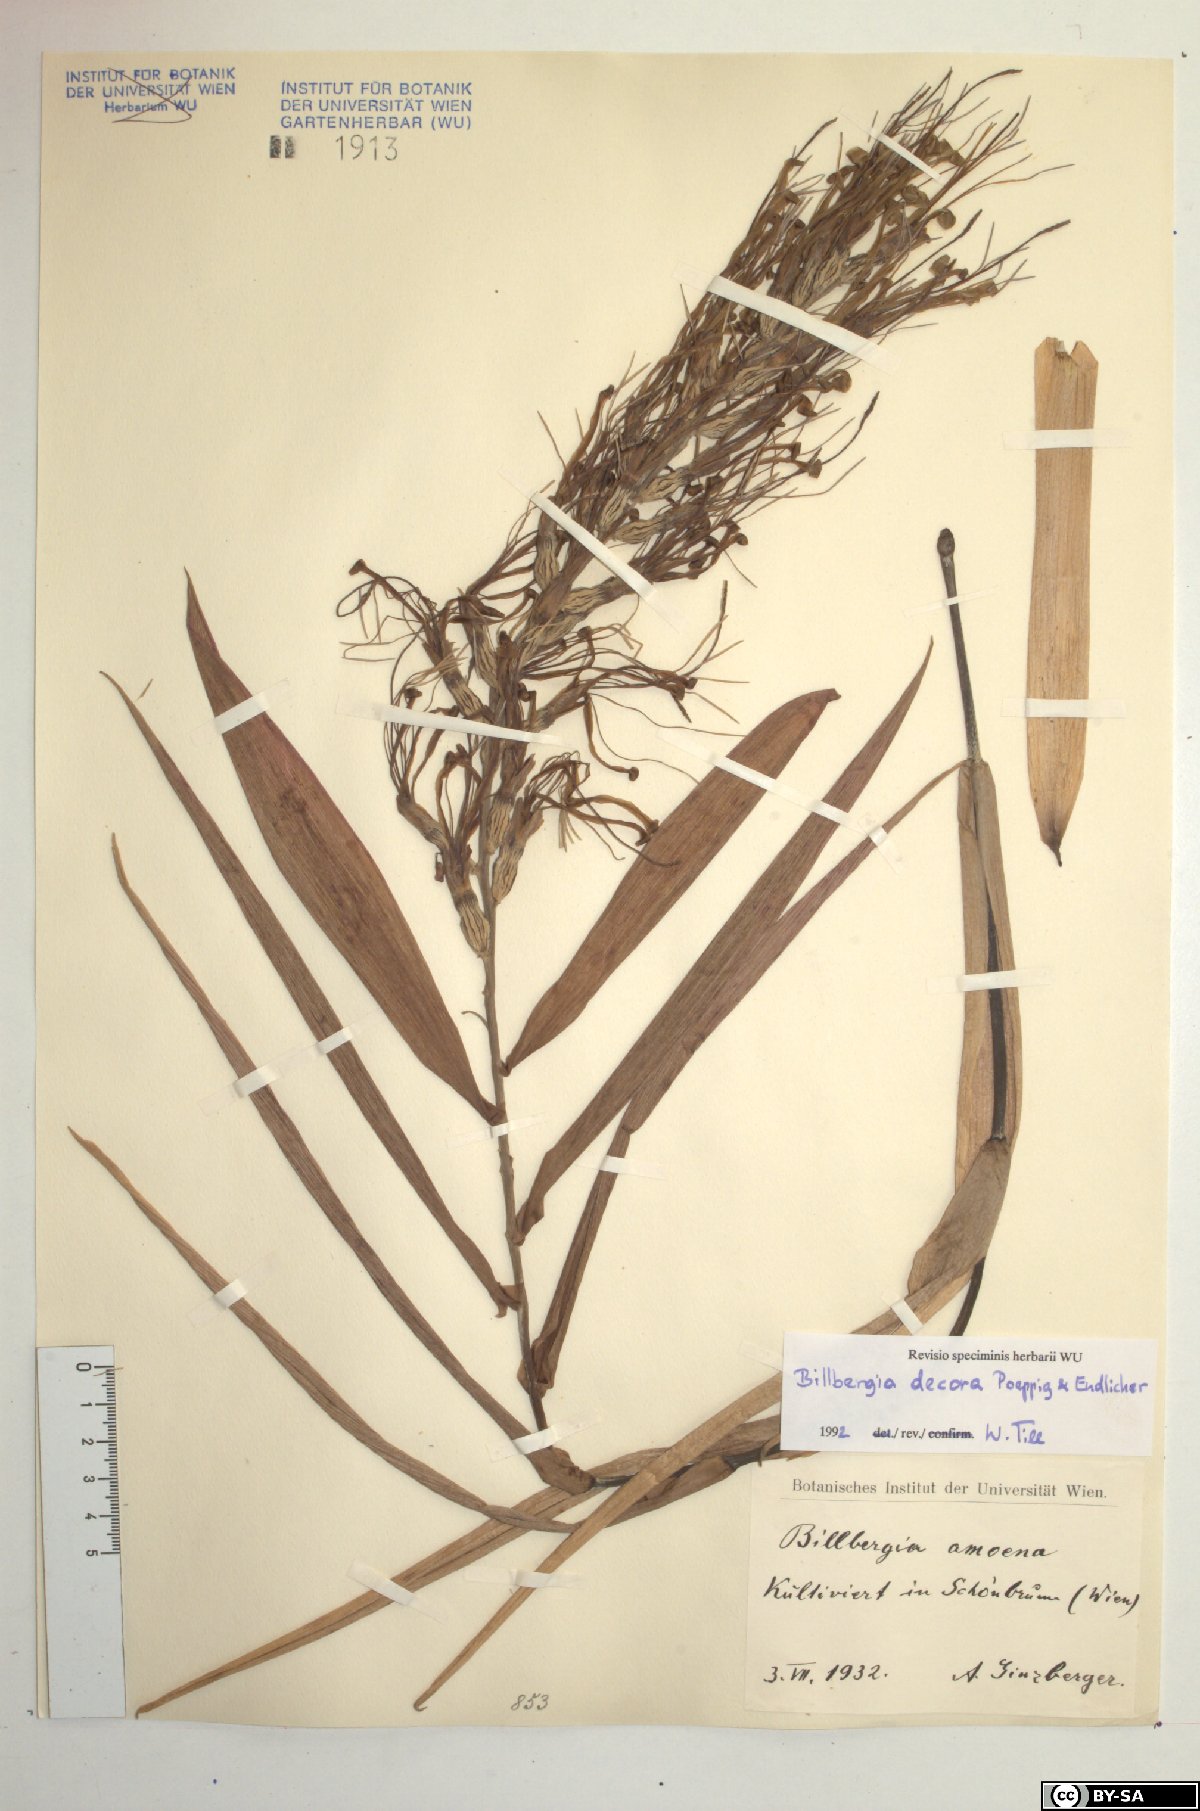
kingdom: Plantae
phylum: Tracheophyta
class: Liliopsida
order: Poales
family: Bromeliaceae
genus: Billbergia
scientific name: Billbergia decora
